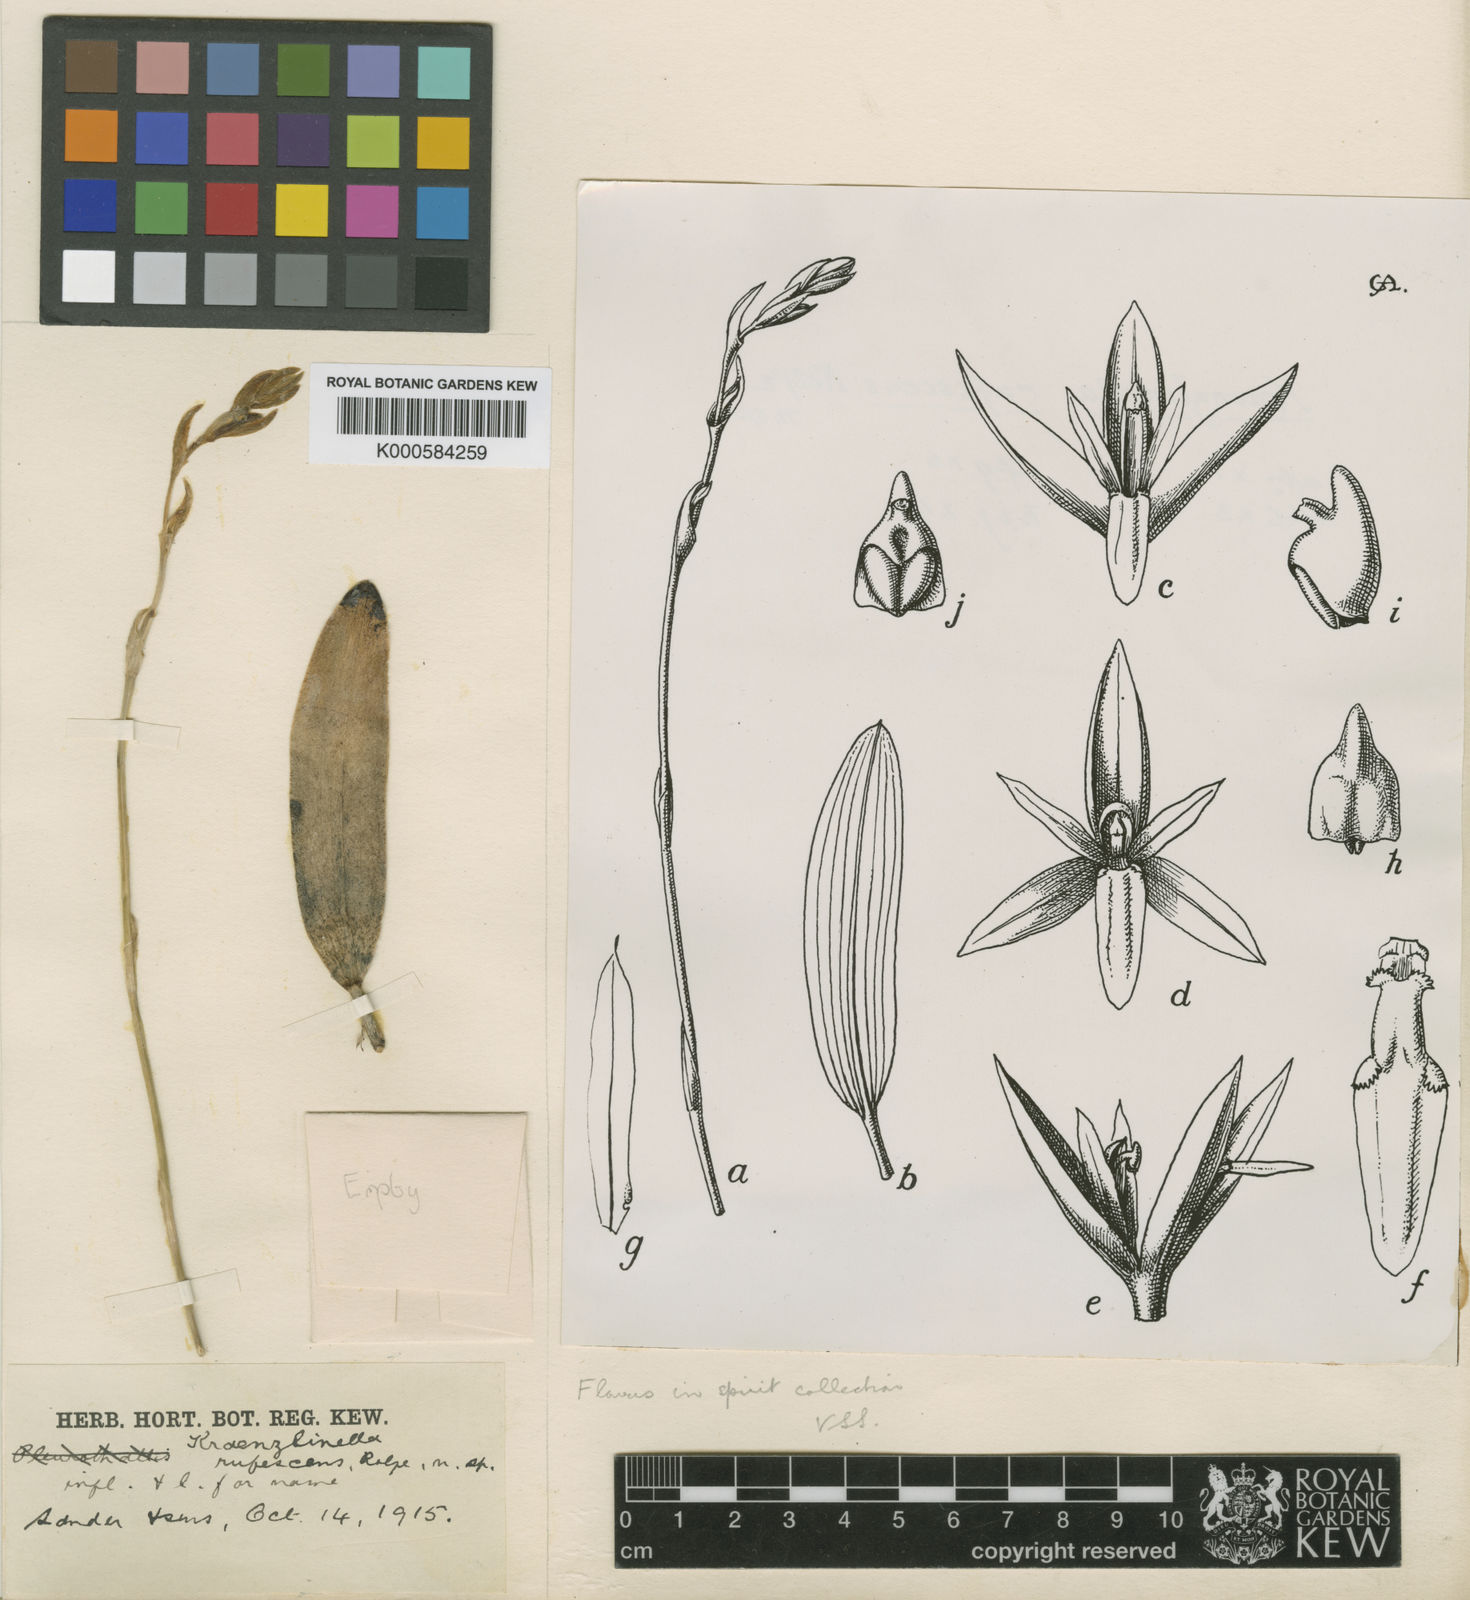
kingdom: Plantae
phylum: Tracheophyta
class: Magnoliopsida
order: Gentianales
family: Apocynaceae
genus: Micrechites
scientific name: Micrechites
